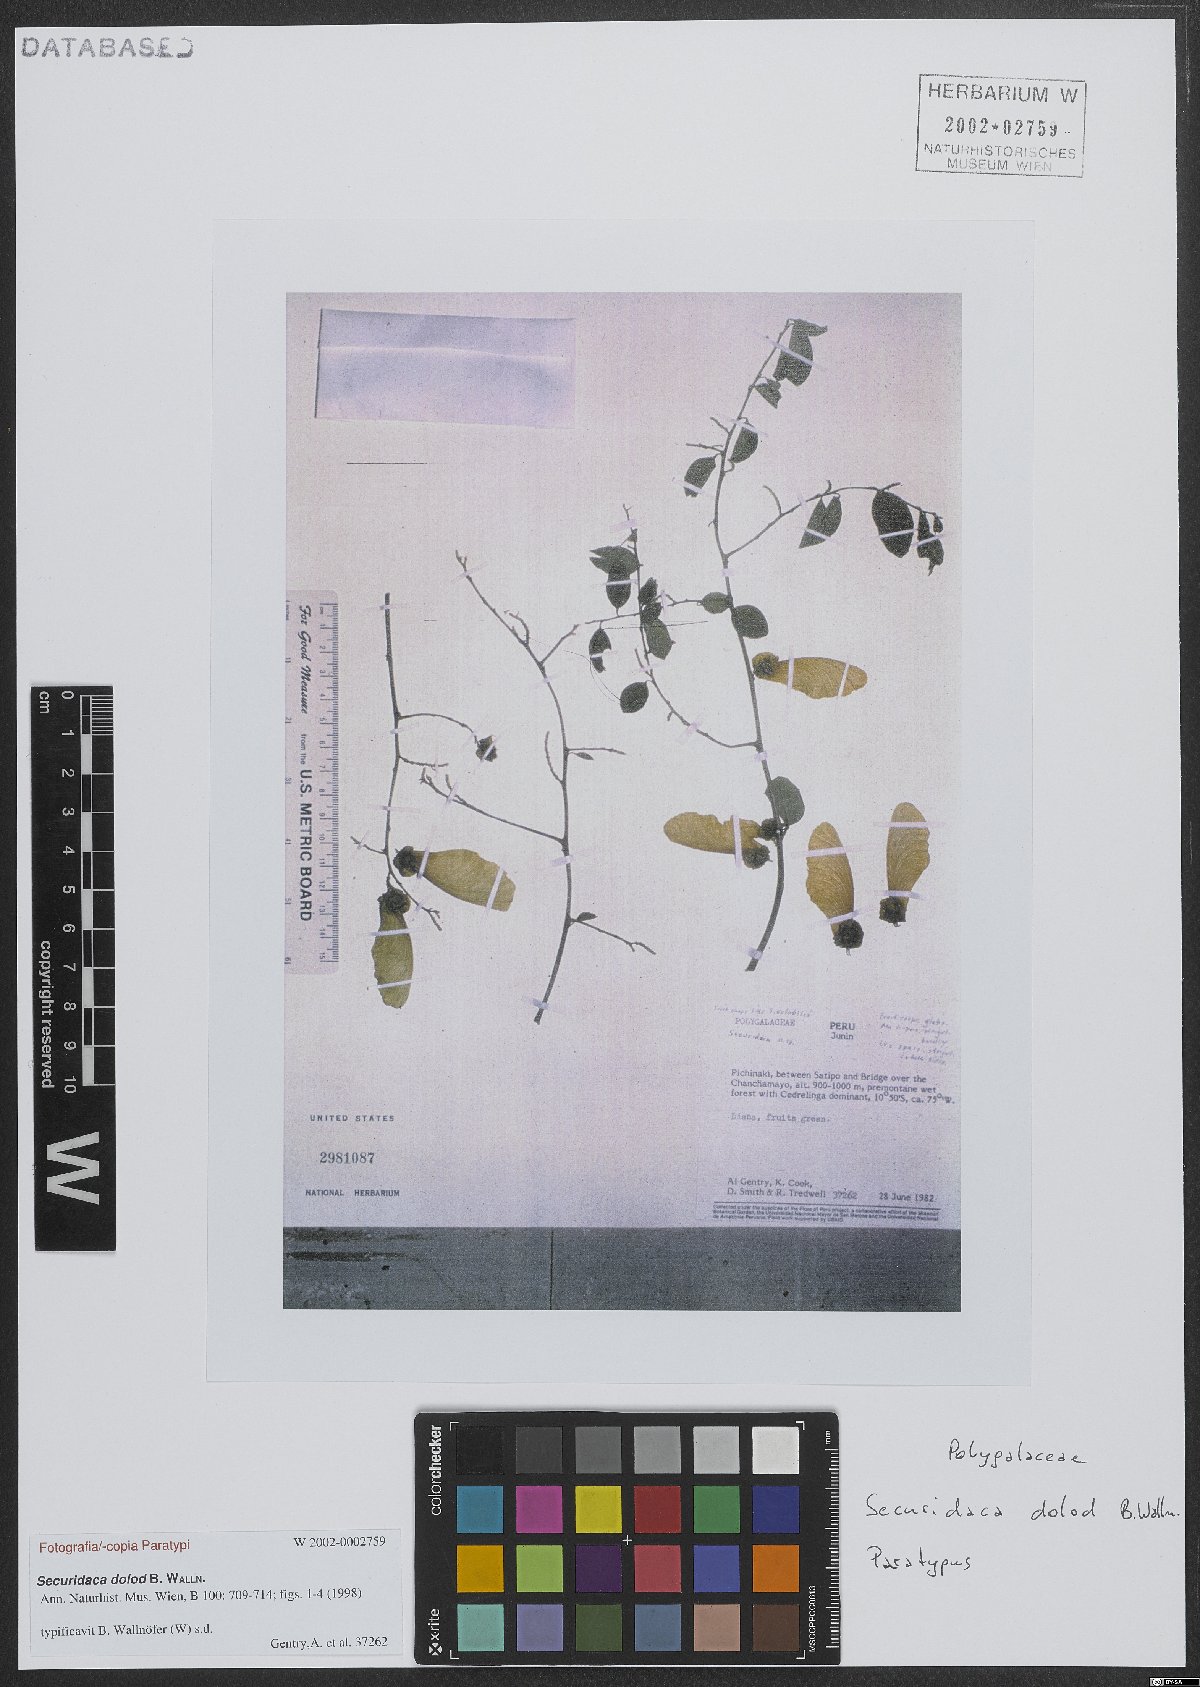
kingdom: Plantae
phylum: Tracheophyta
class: Magnoliopsida
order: Fabales
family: Polygalaceae
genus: Securidaca
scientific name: Securidaca dolod
